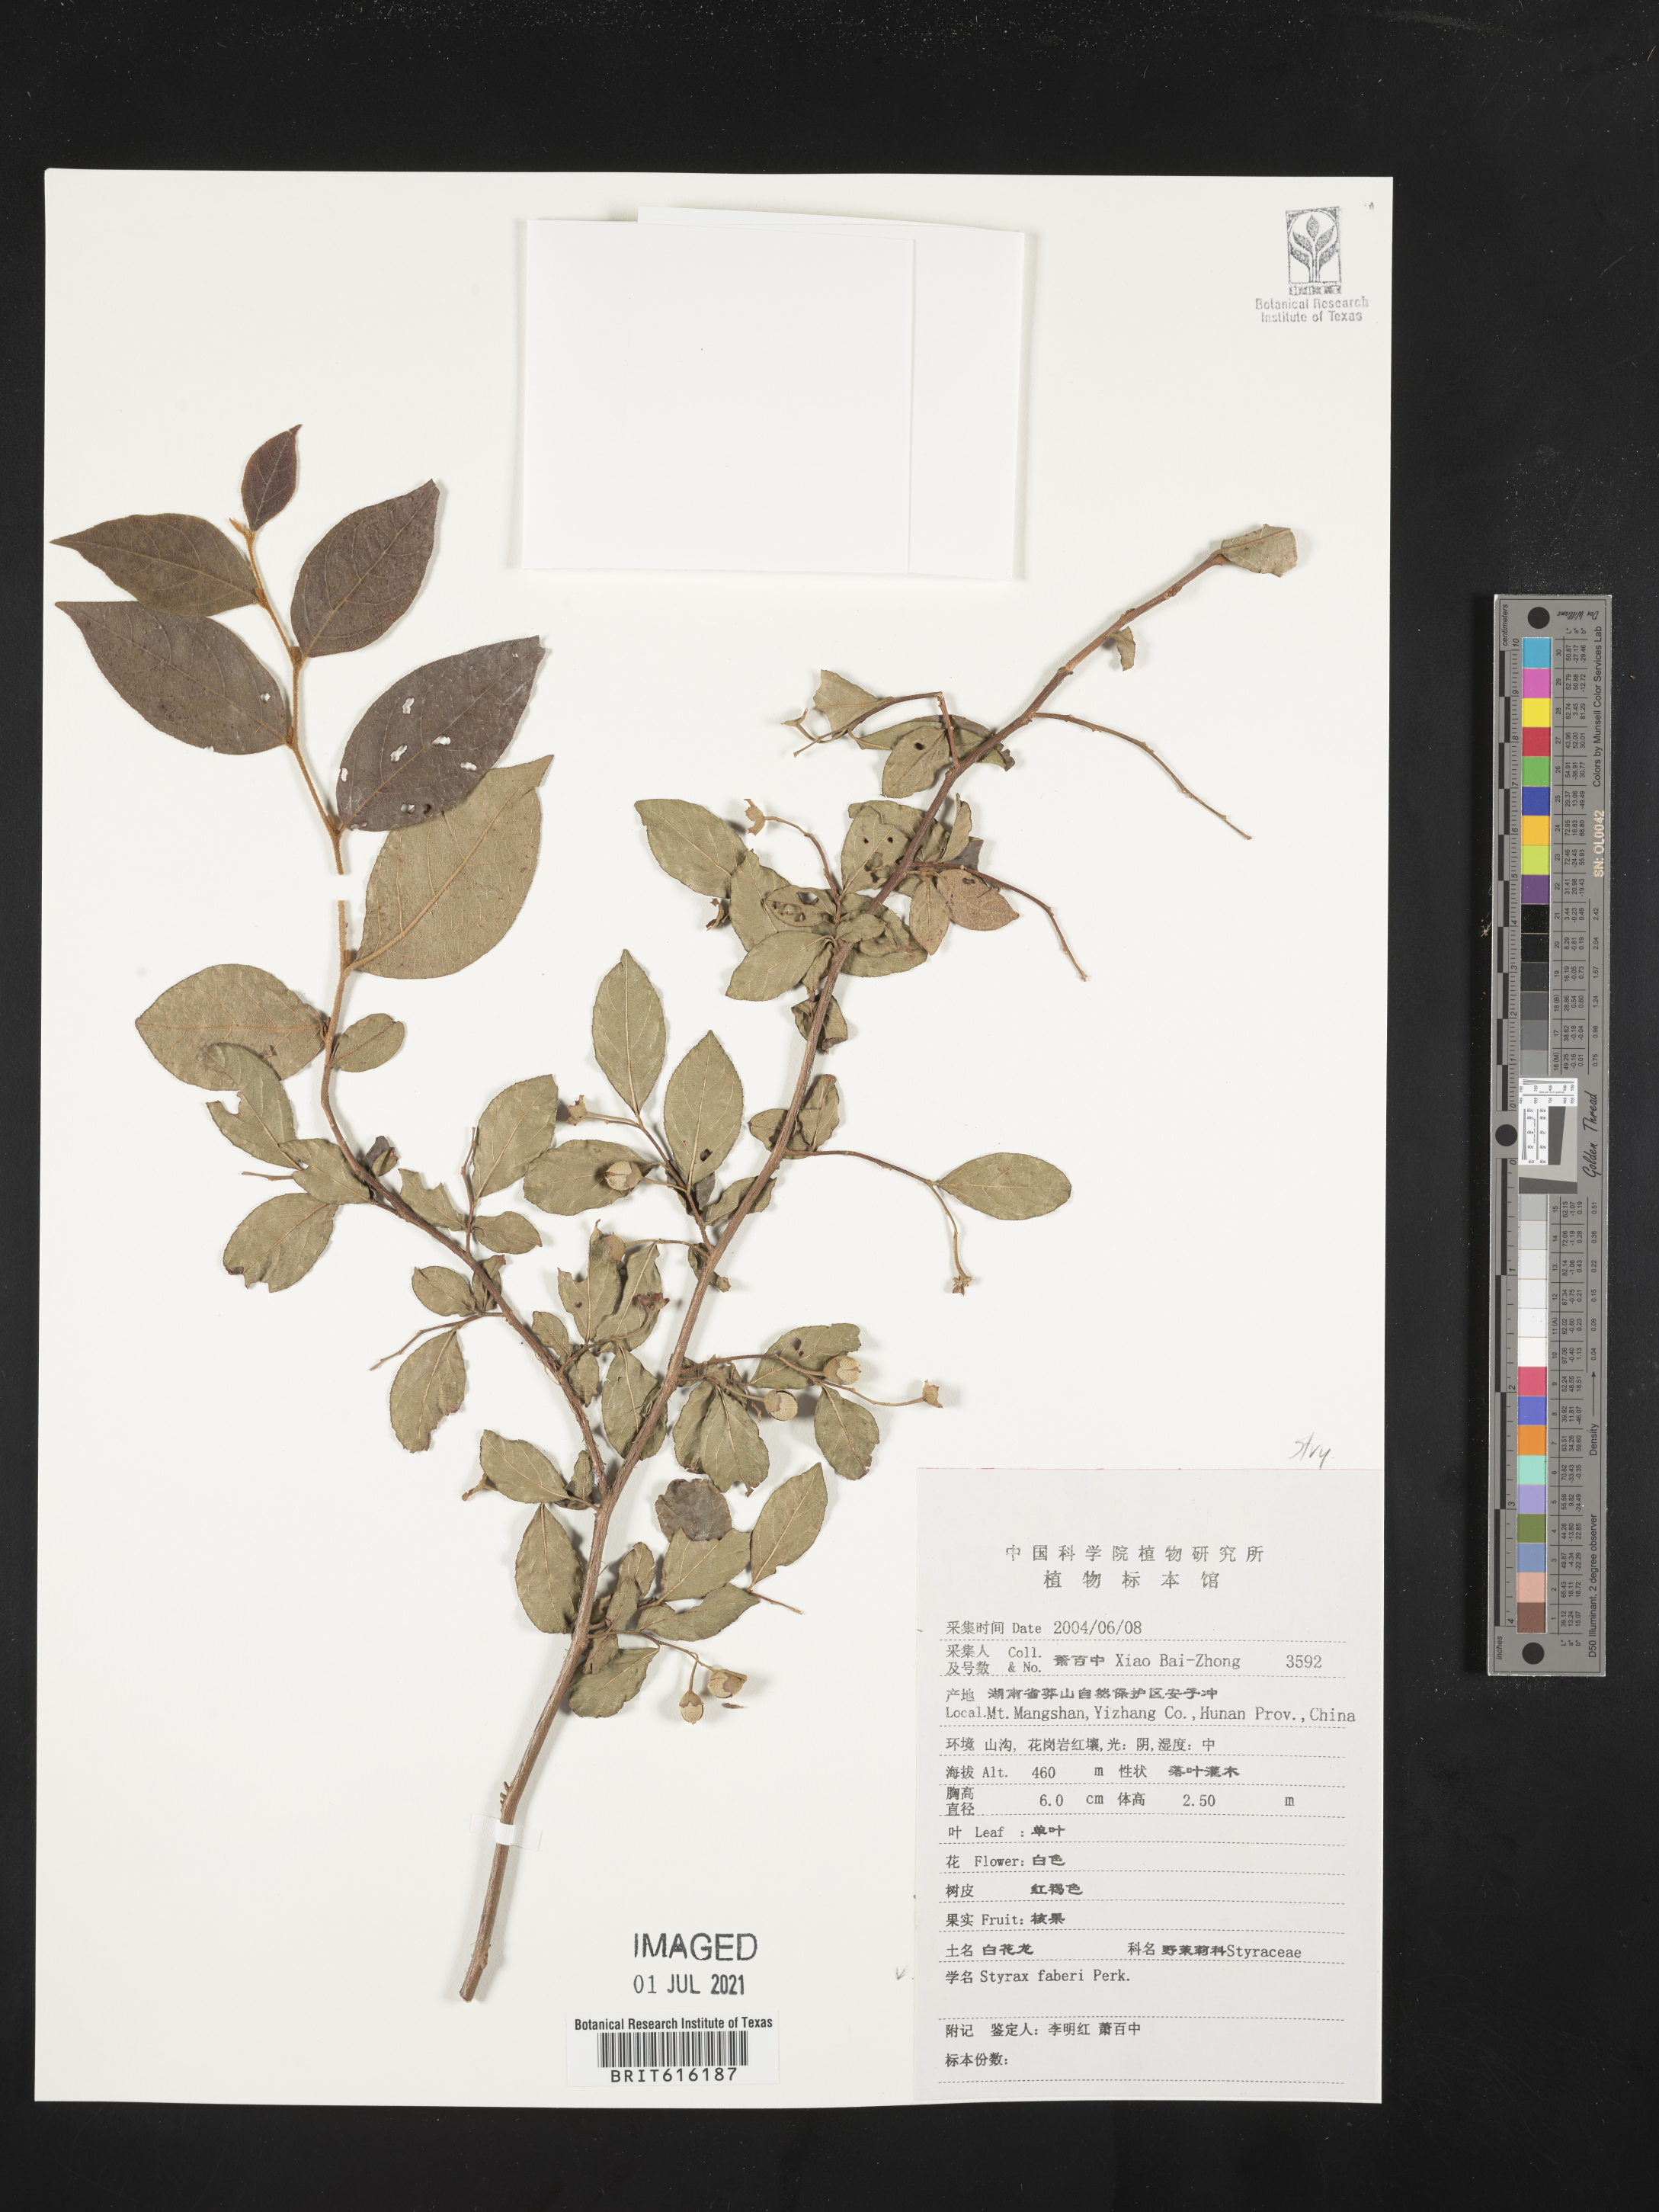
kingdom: Plantae
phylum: Tracheophyta
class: Magnoliopsida
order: Ericales
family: Styracaceae
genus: Styrax
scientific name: Styrax faberi
